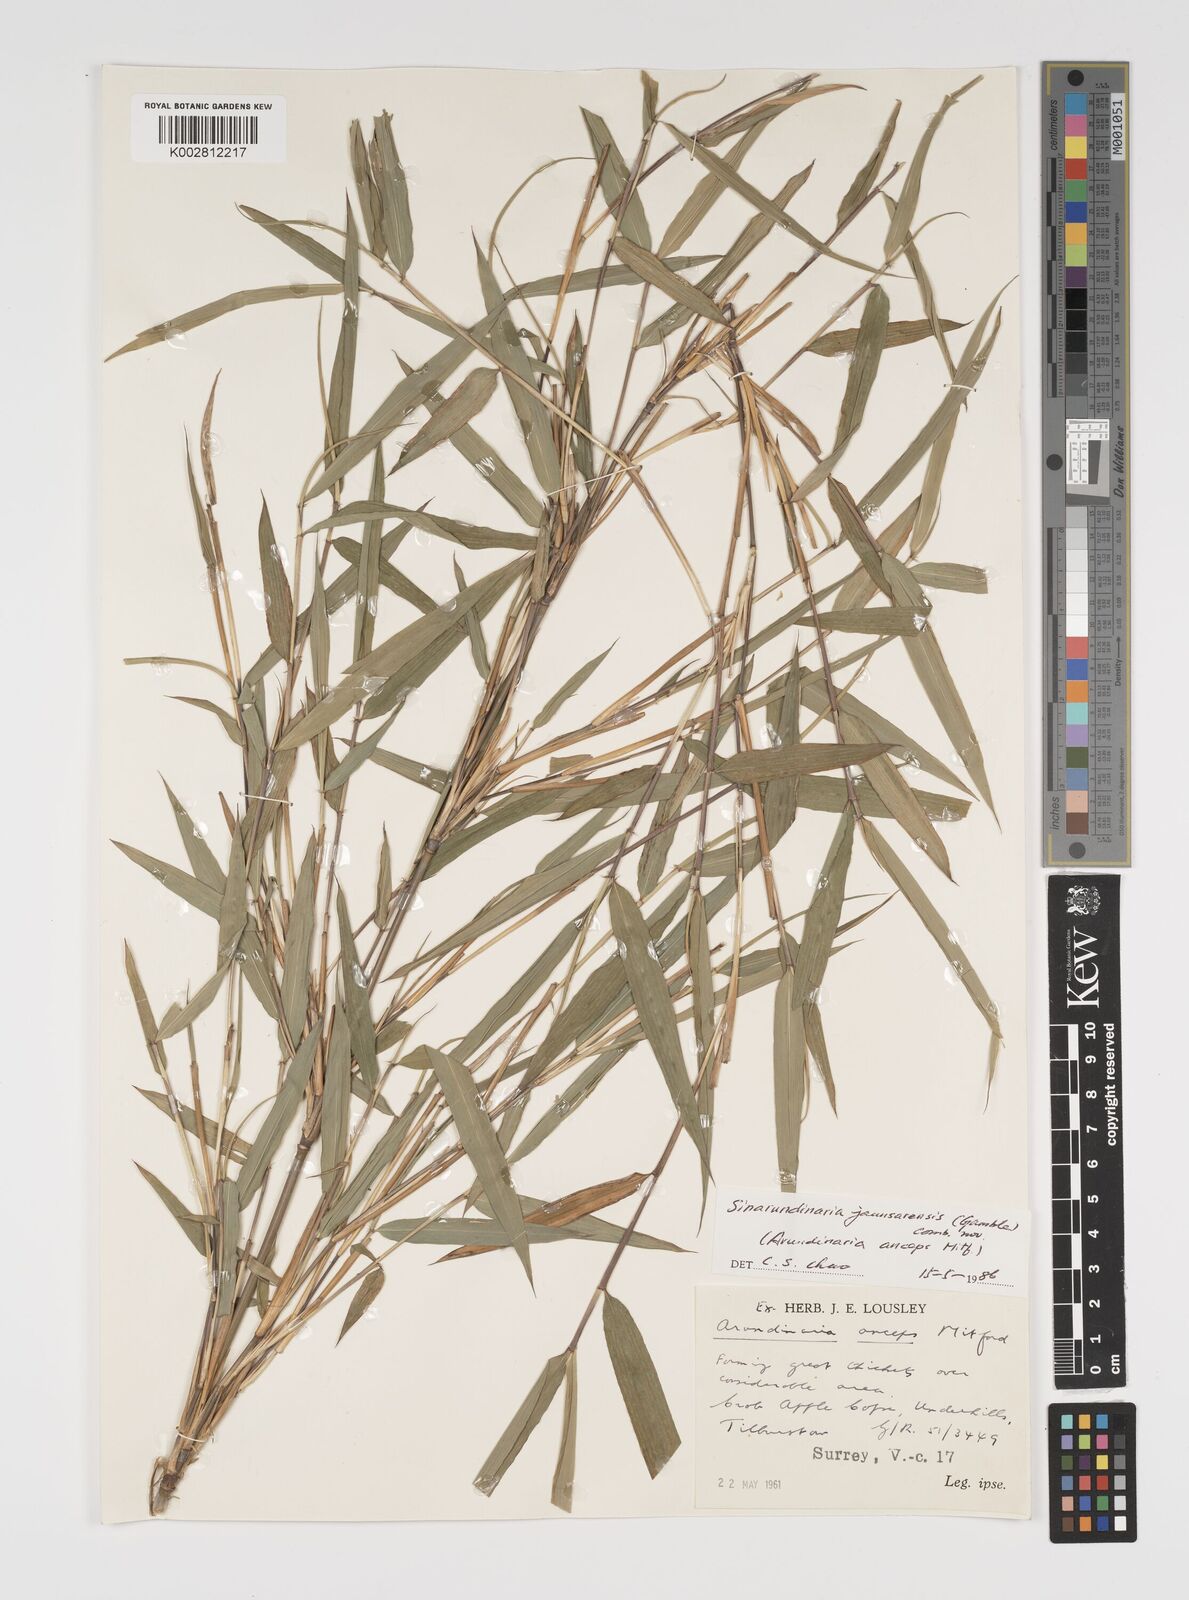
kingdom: Plantae
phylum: Tracheophyta
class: Liliopsida
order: Poales
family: Poaceae
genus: Yushania
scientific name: Yushania anceps
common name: Indian fountain-bamboo
